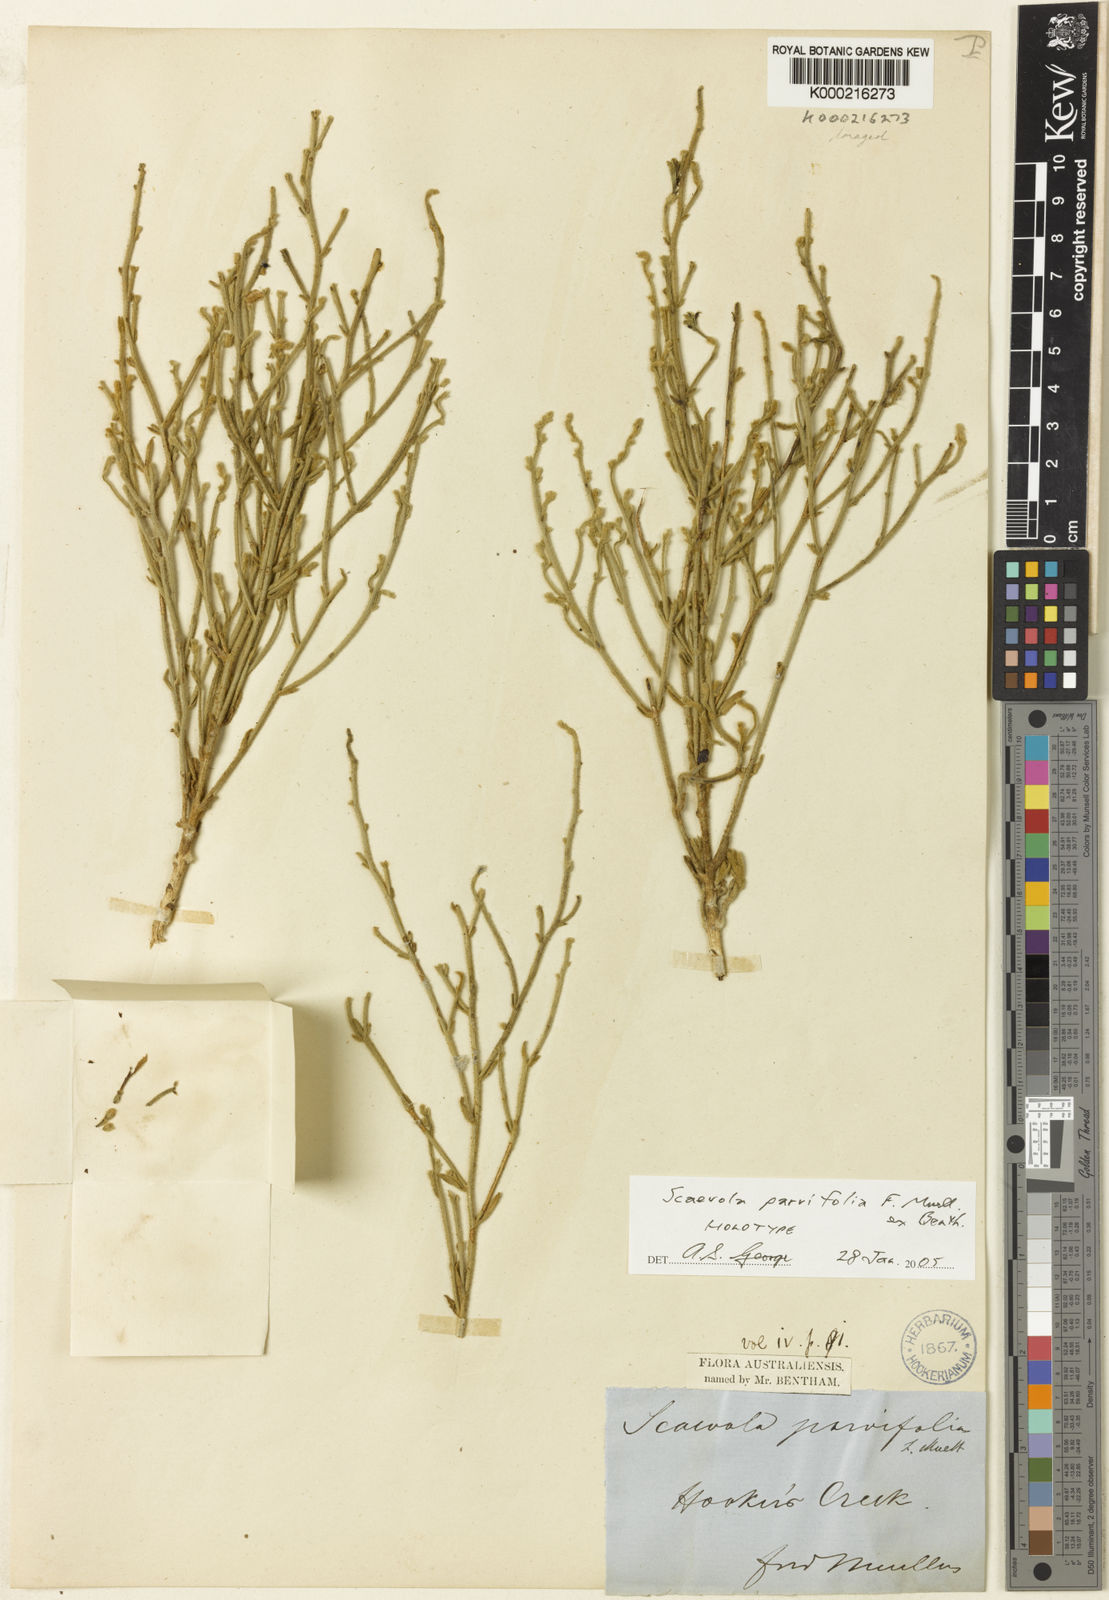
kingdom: Plantae
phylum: Tracheophyta
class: Magnoliopsida
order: Asterales
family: Goodeniaceae
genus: Scaevola
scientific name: Scaevola parvifolia
